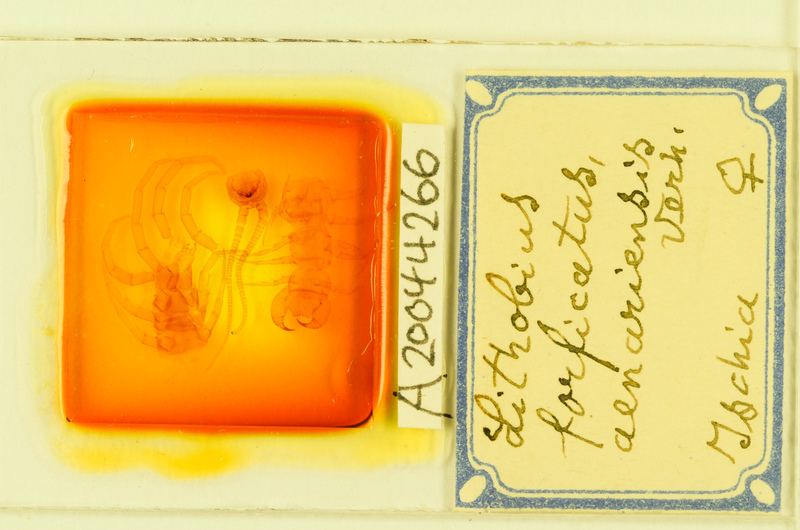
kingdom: Animalia
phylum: Arthropoda
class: Chilopoda
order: Lithobiomorpha
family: Lithobiidae
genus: Lithobius
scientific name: Lithobius forficatus
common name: Centipede
